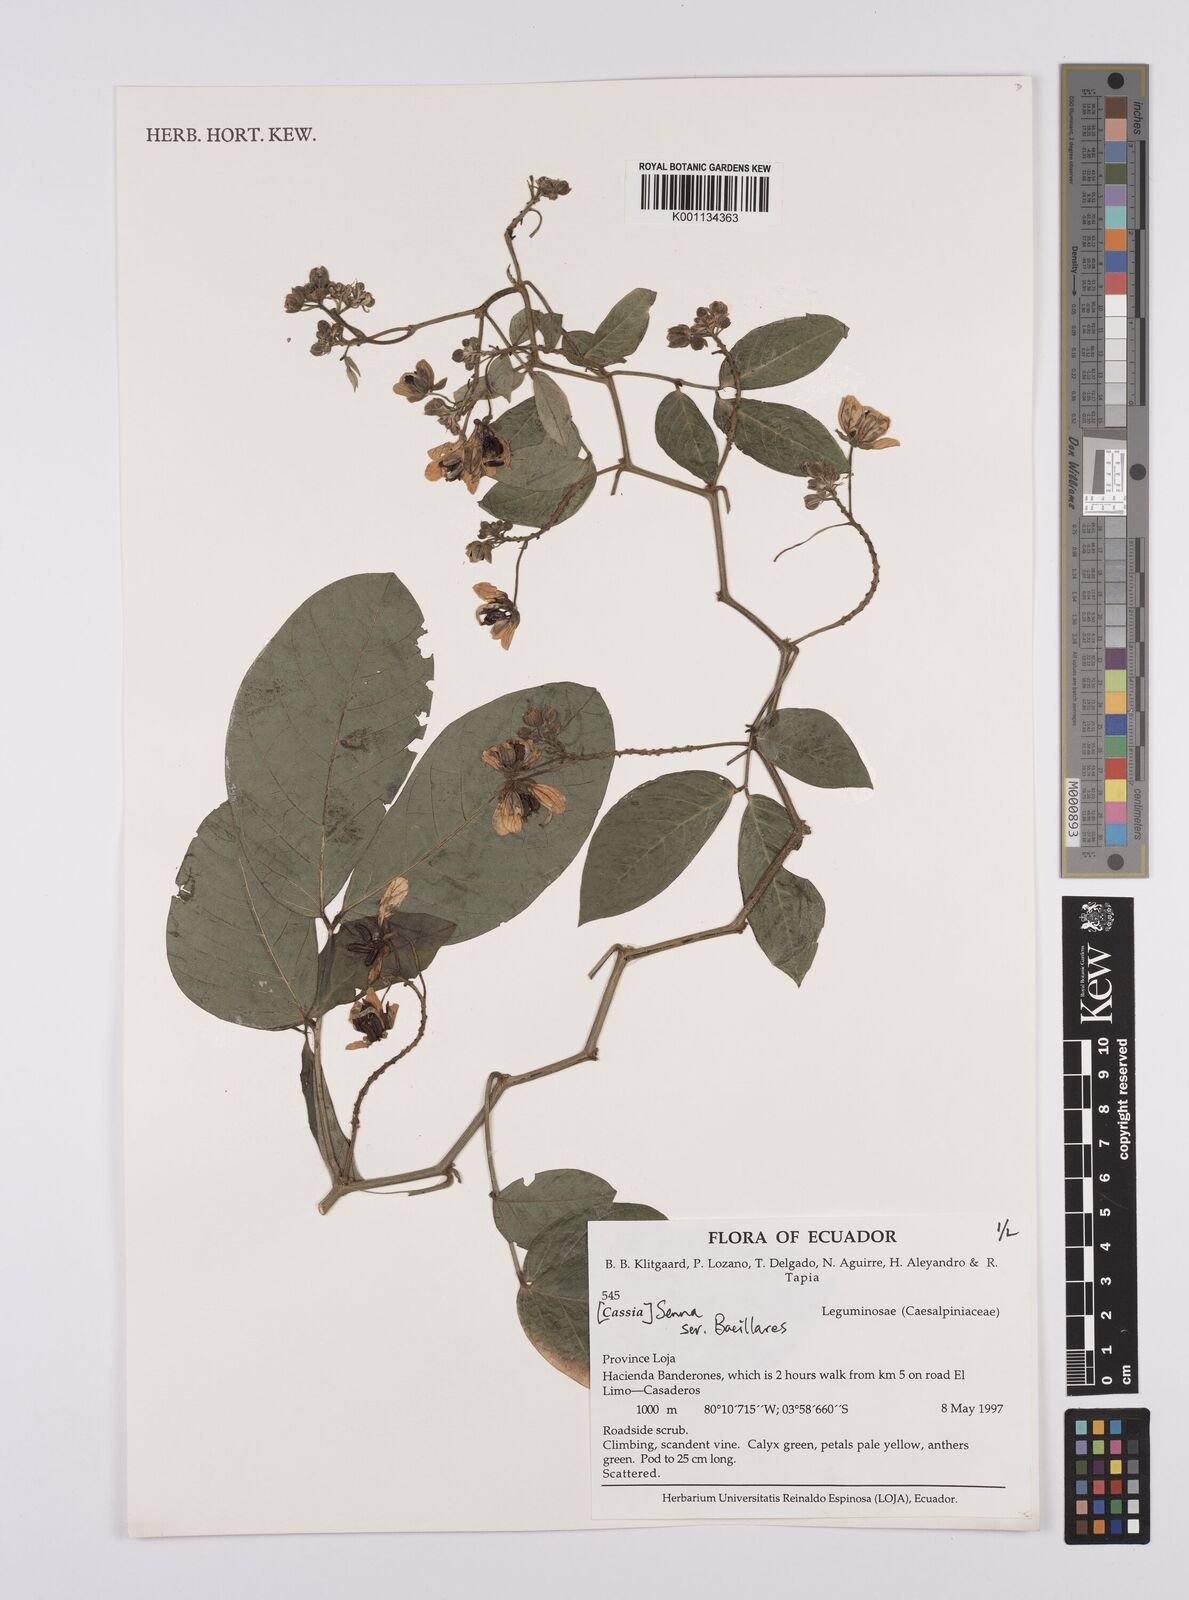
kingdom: Plantae
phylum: Tracheophyta
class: Magnoliopsida
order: Fabales
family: Fabaceae
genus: Senna
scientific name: Senna
